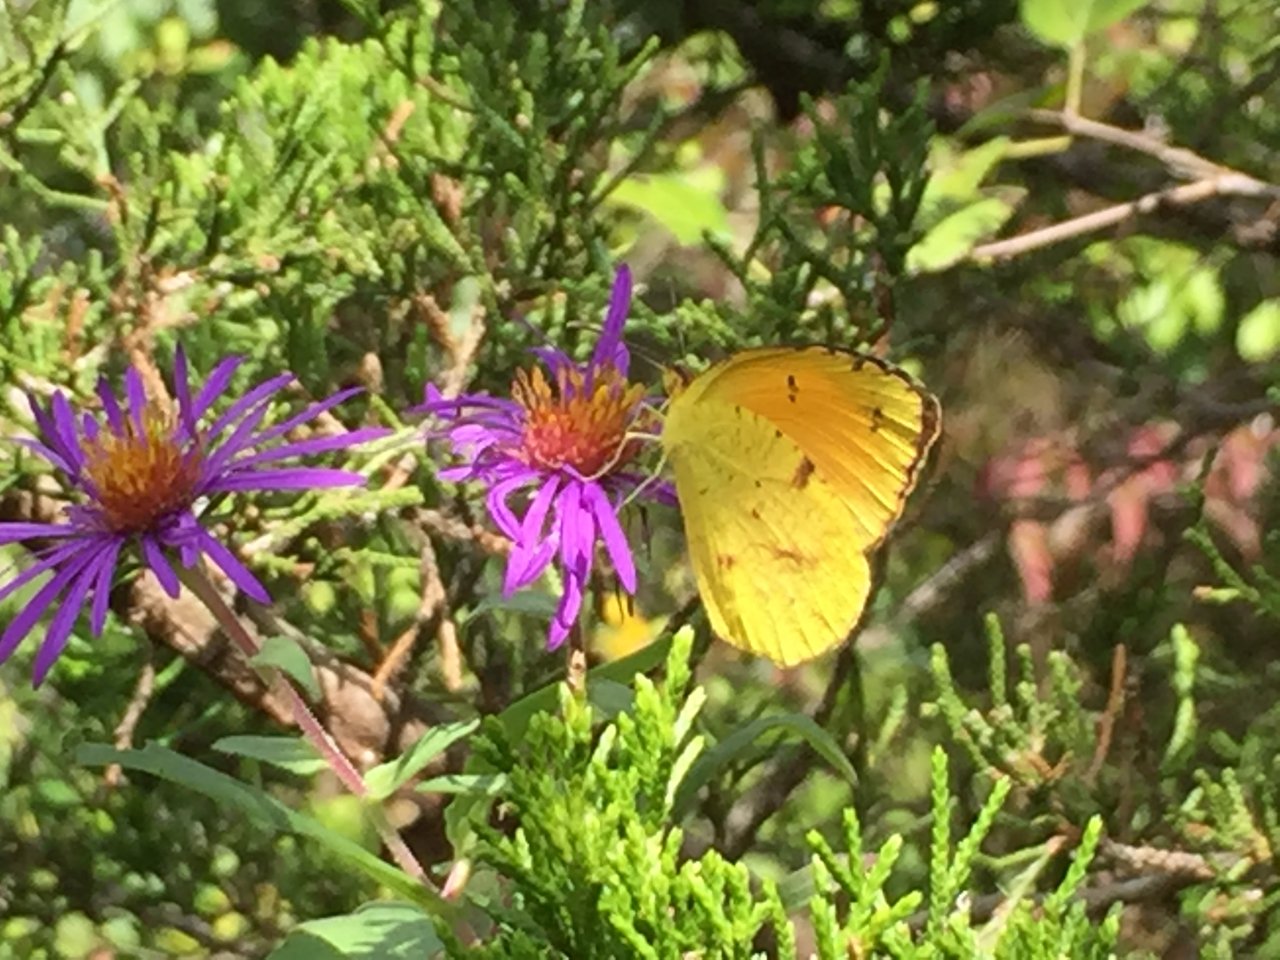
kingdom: Animalia
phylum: Arthropoda
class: Insecta
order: Lepidoptera
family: Pieridae
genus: Abaeis
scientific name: Abaeis nicippe
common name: Sleepy Orange
